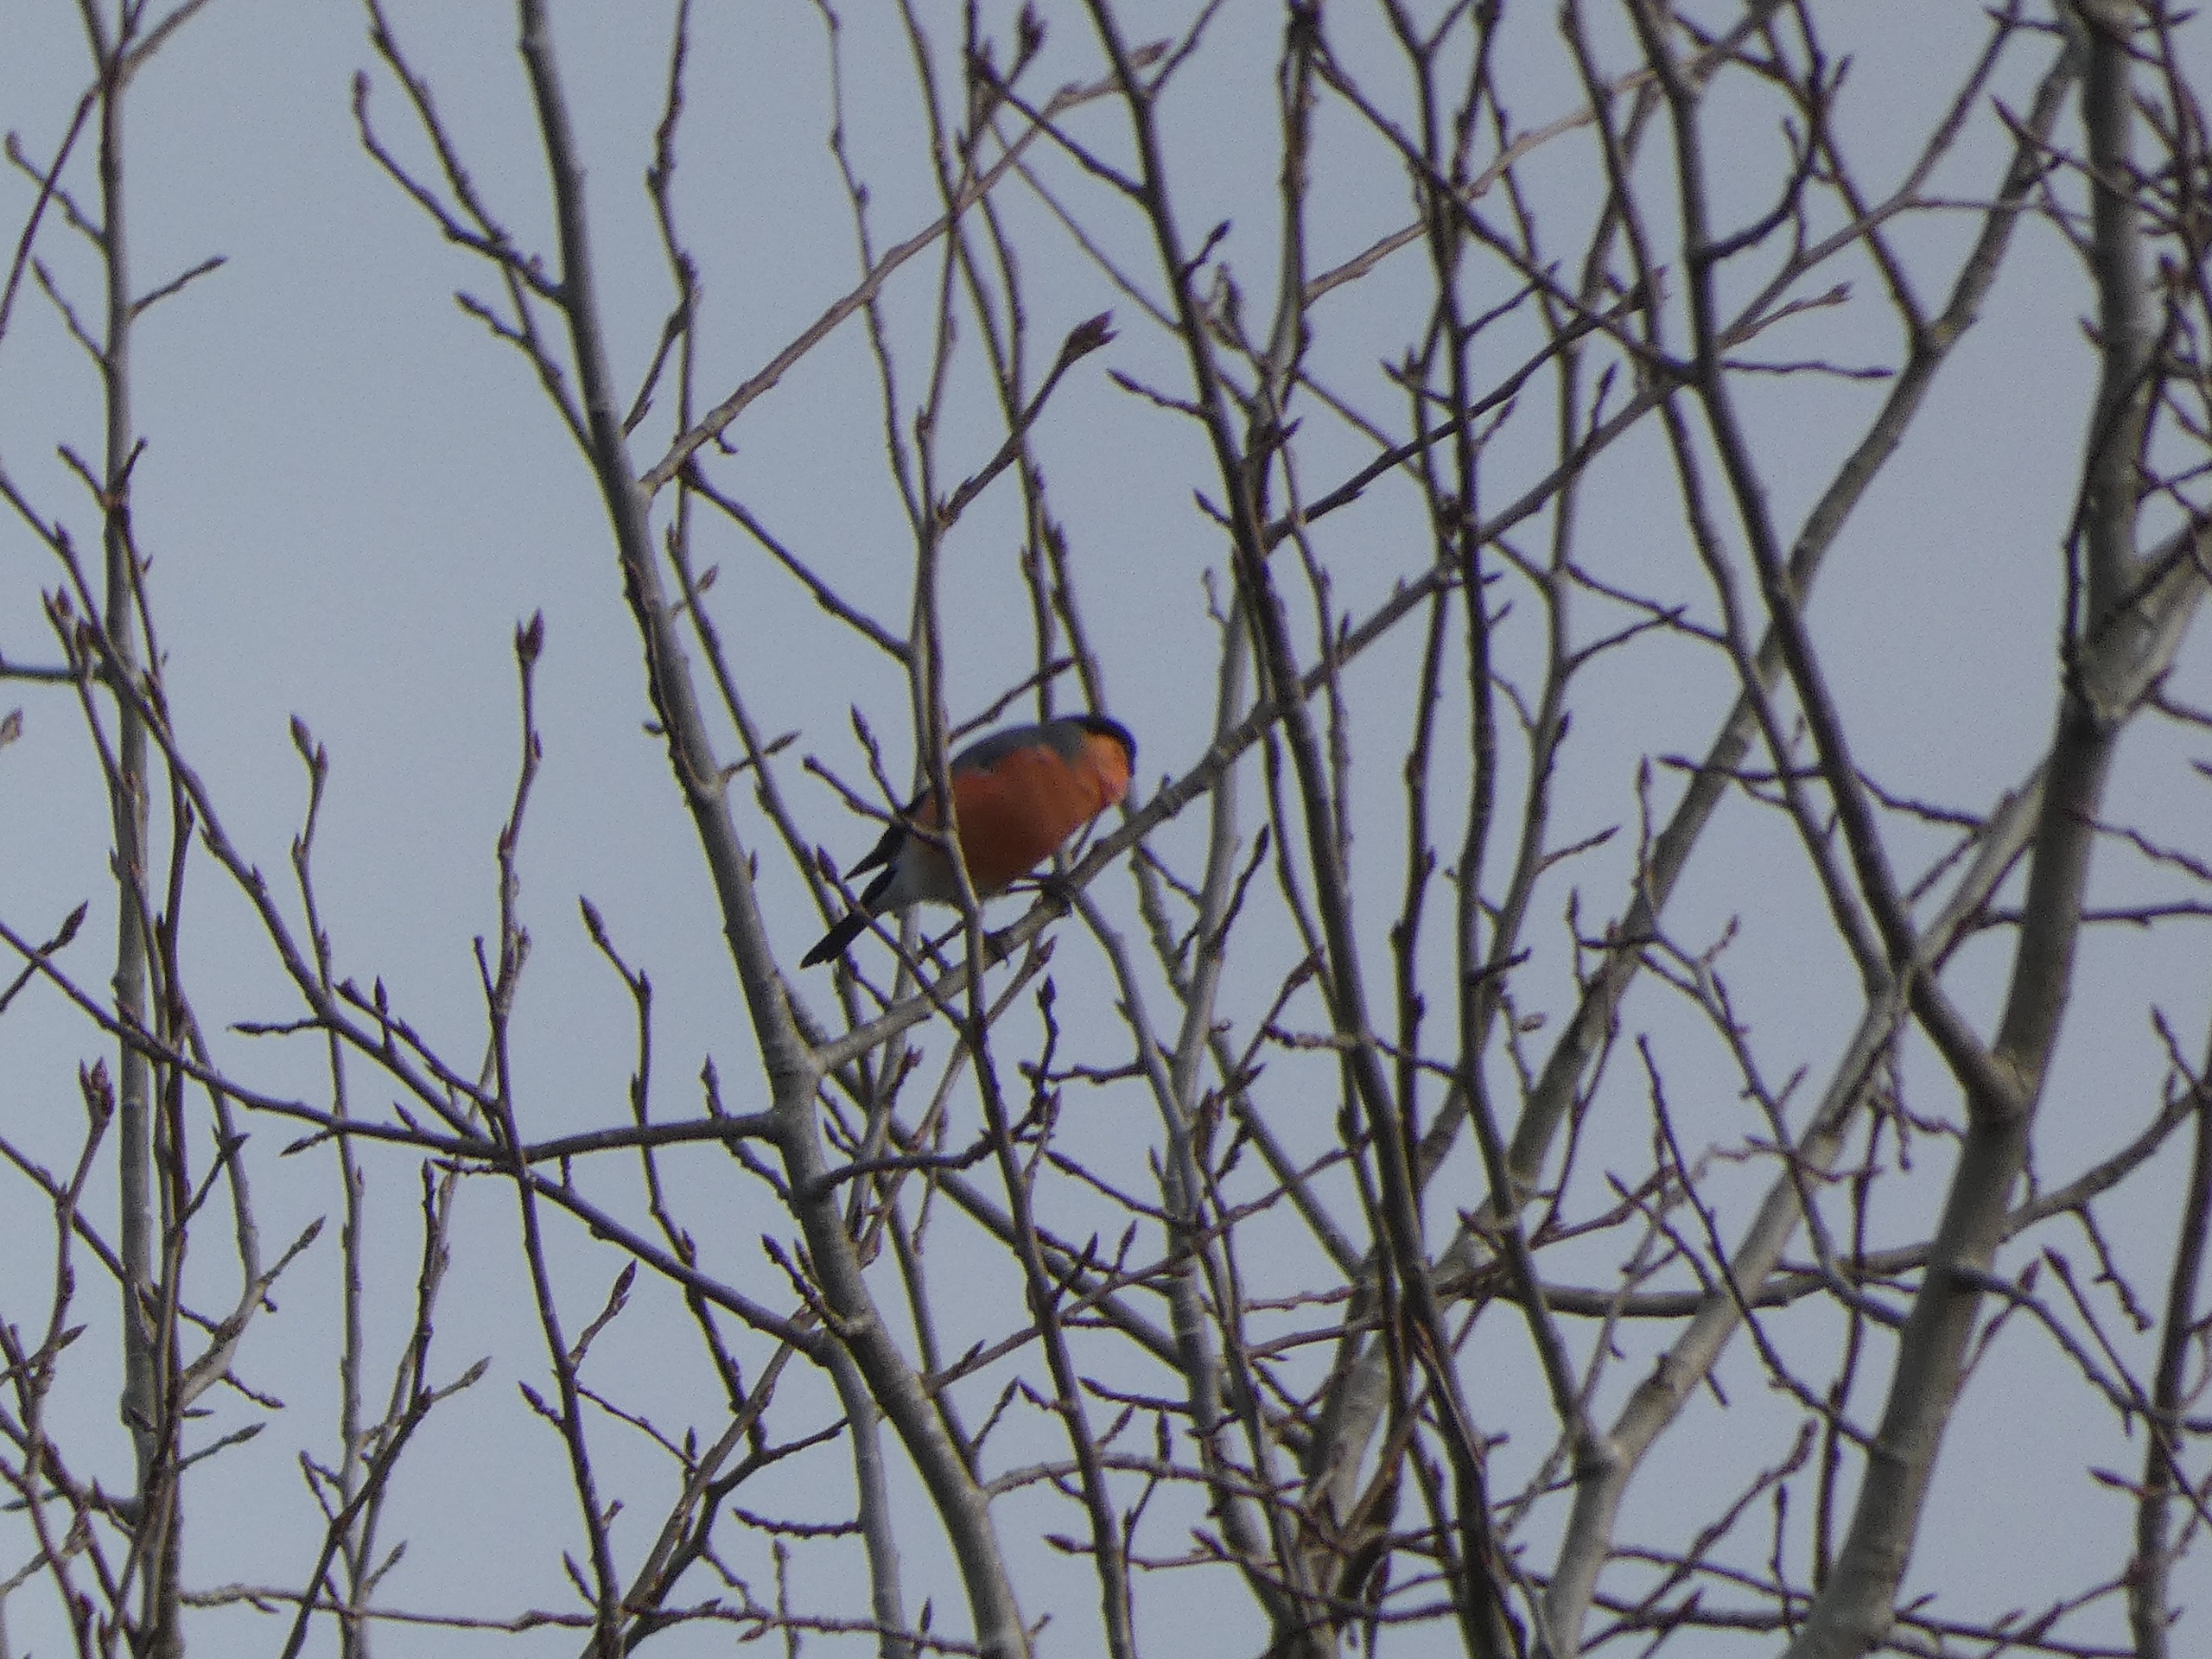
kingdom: Animalia
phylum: Chordata
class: Aves
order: Passeriformes
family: Fringillidae
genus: Pyrrhula
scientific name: Pyrrhula pyrrhula
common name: Dompap
